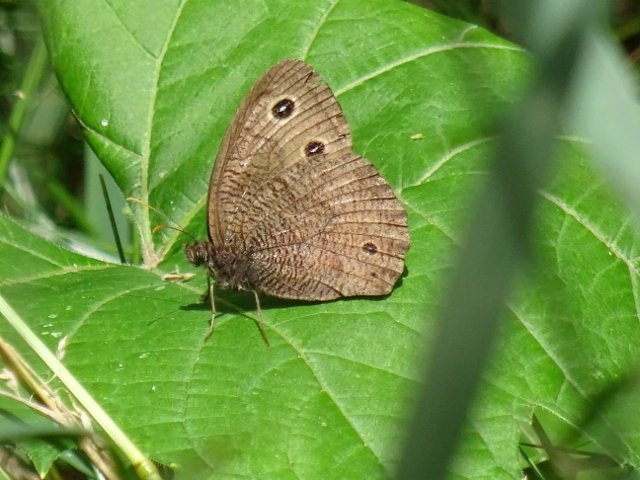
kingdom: Animalia
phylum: Arthropoda
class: Insecta
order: Lepidoptera
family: Nymphalidae
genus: Cercyonis
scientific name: Cercyonis pegala
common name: Common Wood-Nymph
